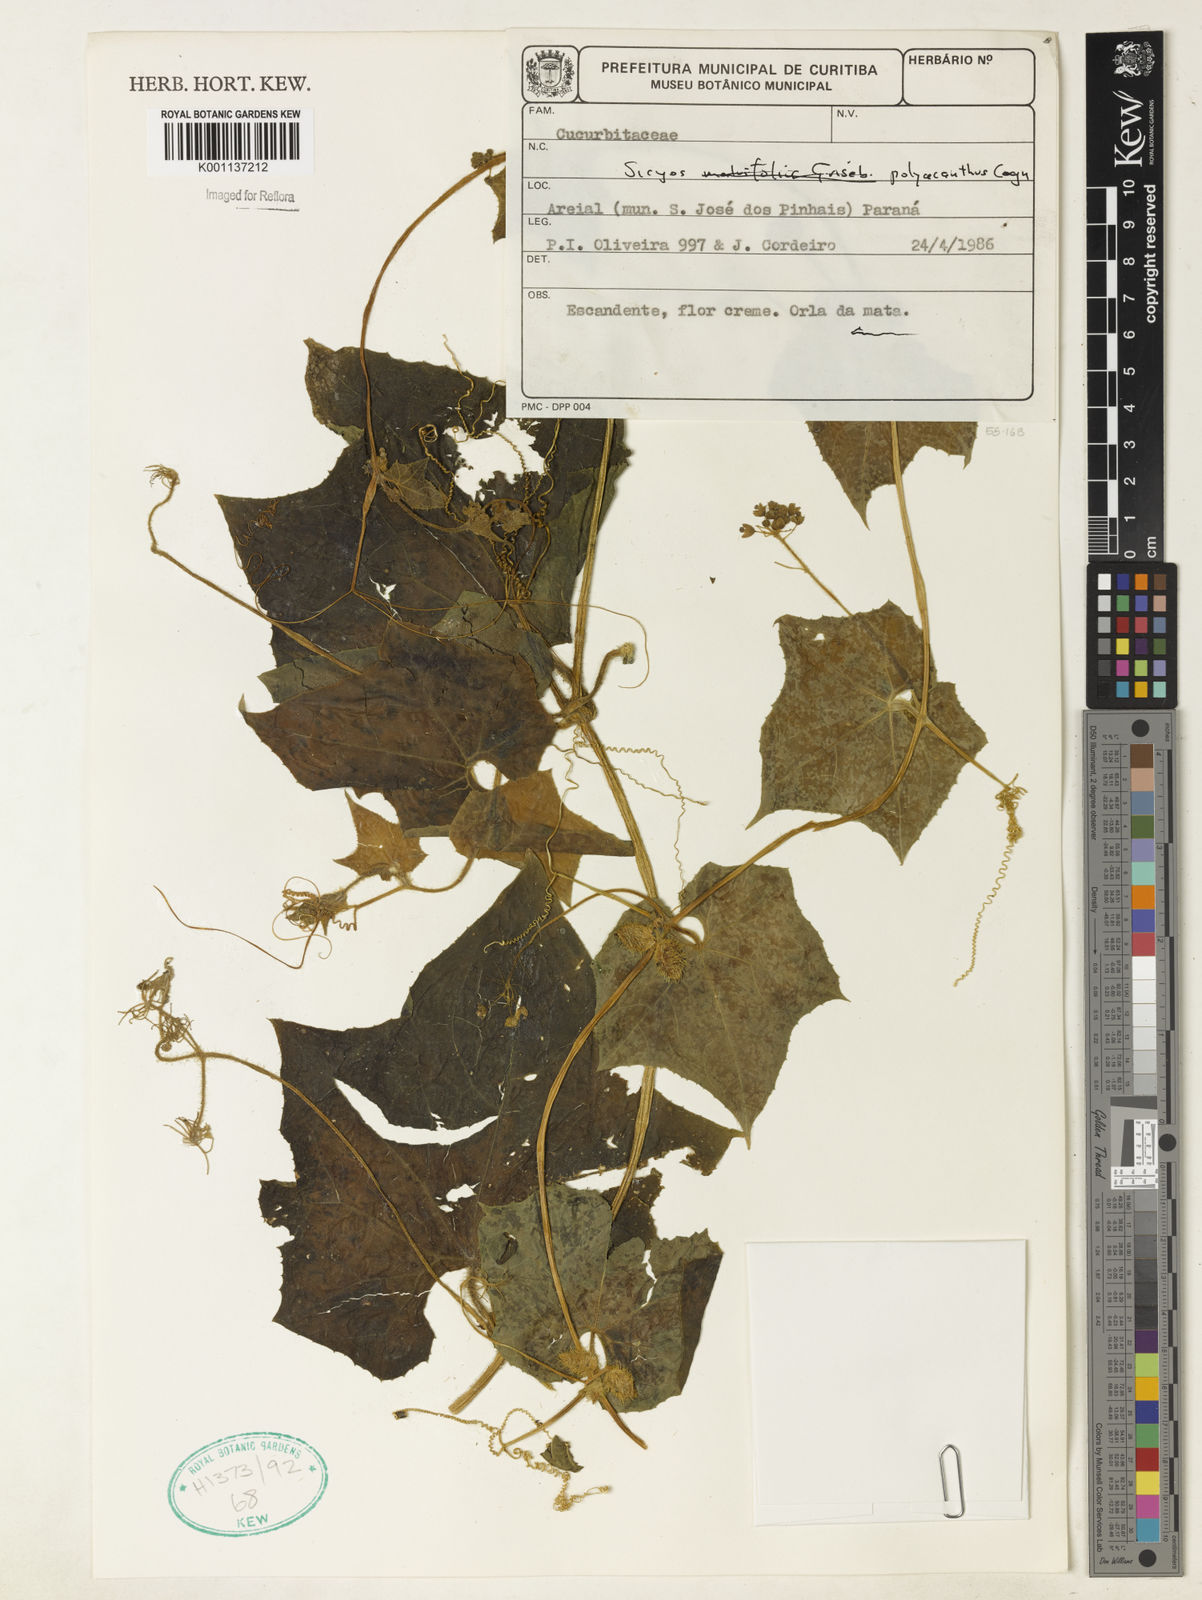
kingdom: Plantae
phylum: Tracheophyta
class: Magnoliopsida
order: Cucurbitales
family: Cucurbitaceae
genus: Sicyos
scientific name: Sicyos polyacanthos
